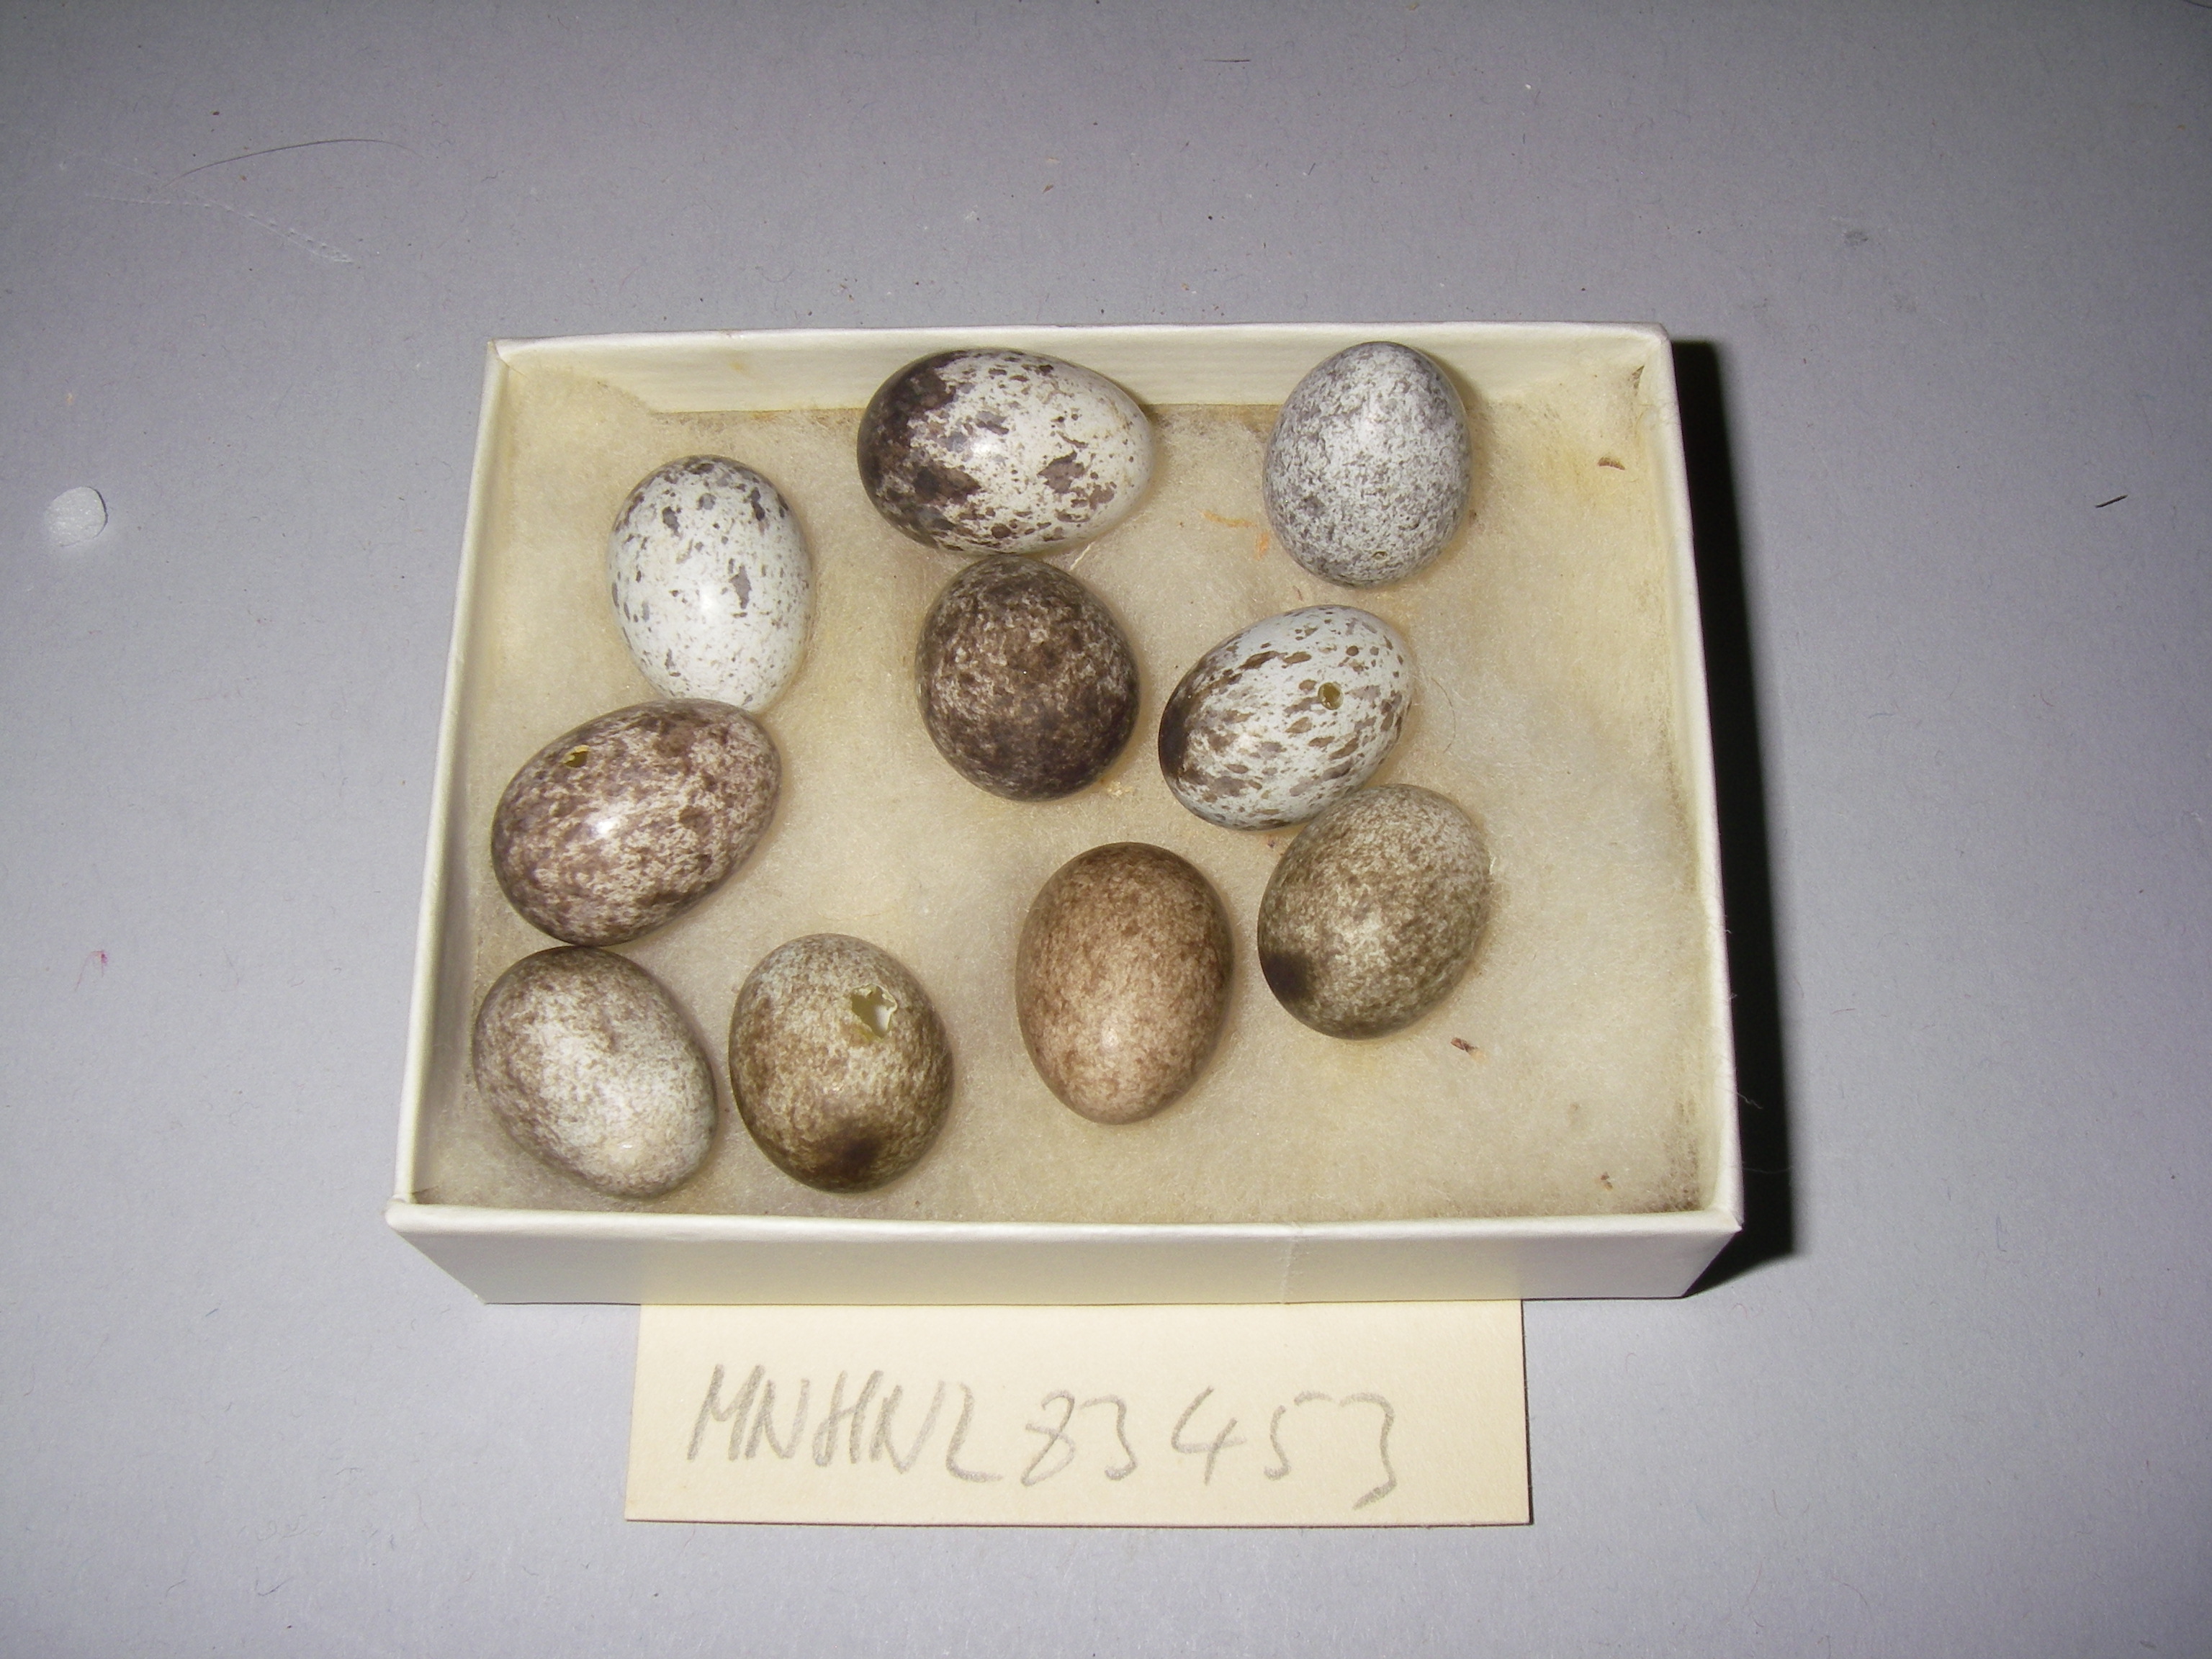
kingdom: Animalia
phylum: Chordata
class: Aves
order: Passeriformes
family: Passeridae
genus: Passer
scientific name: Passer montanus
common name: Eurasian tree sparrow
